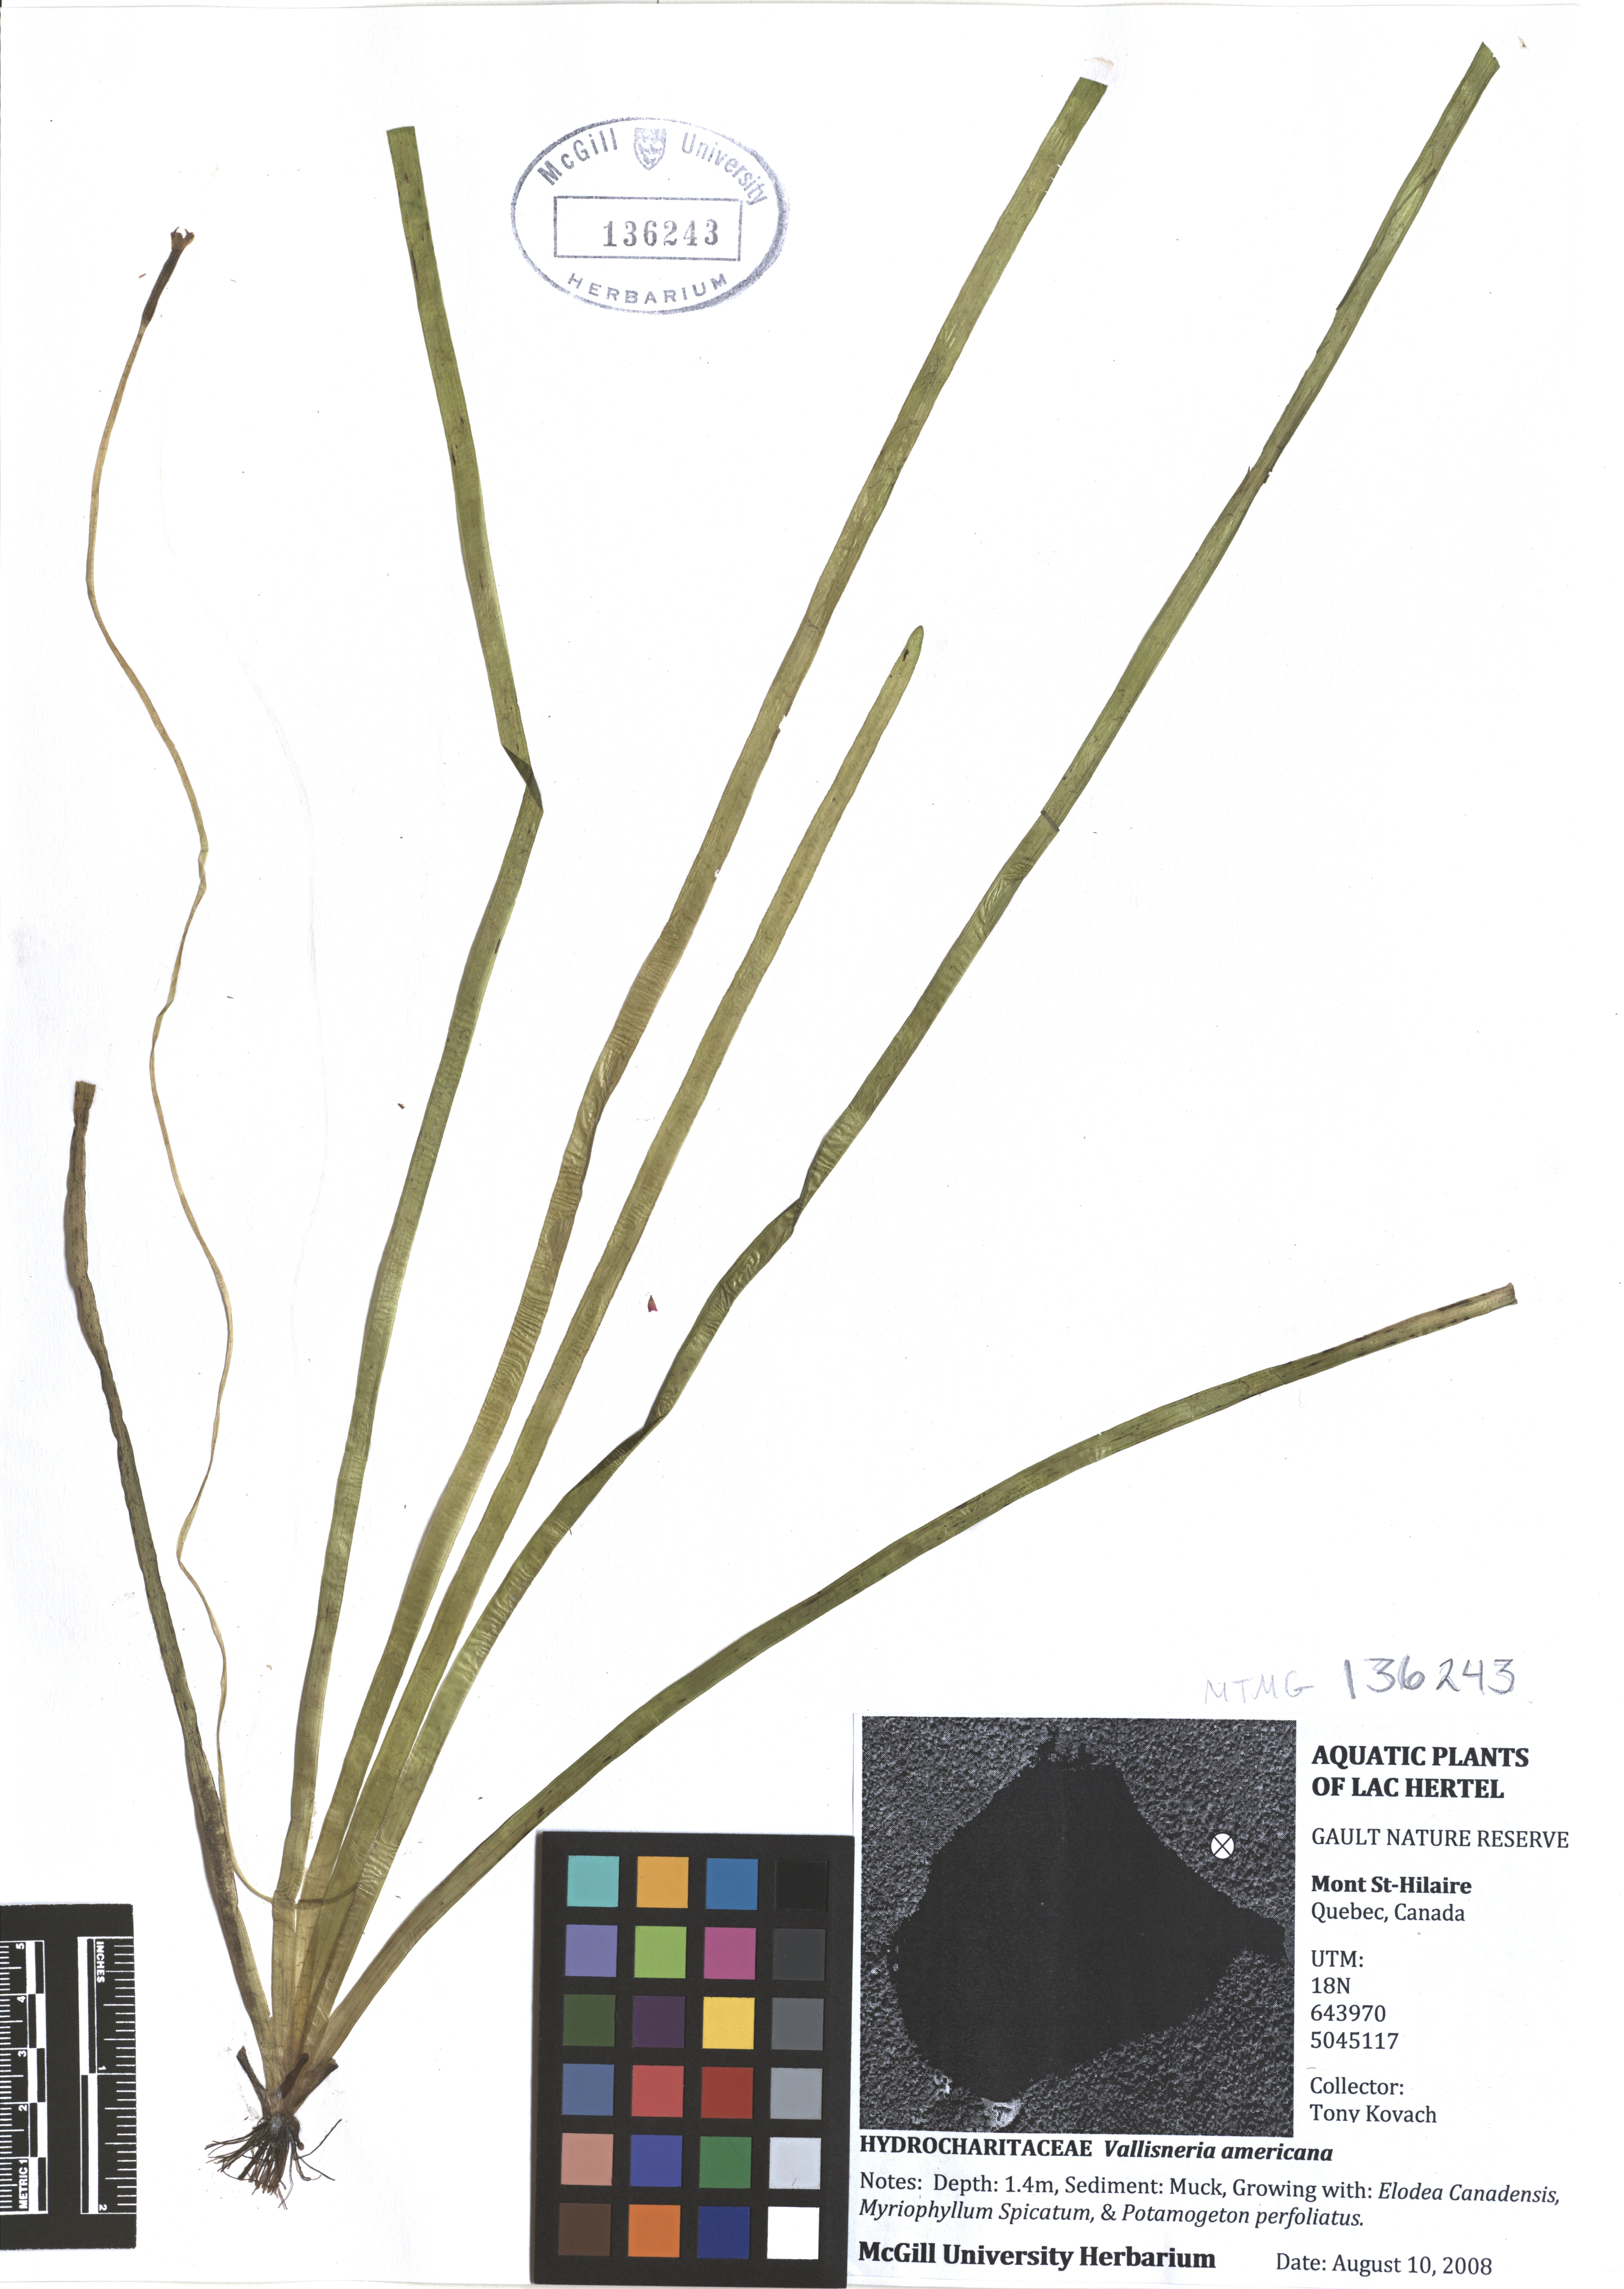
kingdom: Plantae
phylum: Tracheophyta
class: Liliopsida
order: Alismatales
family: Hydrocharitaceae
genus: Vallisneria
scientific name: Vallisneria americana
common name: American eelgrass
